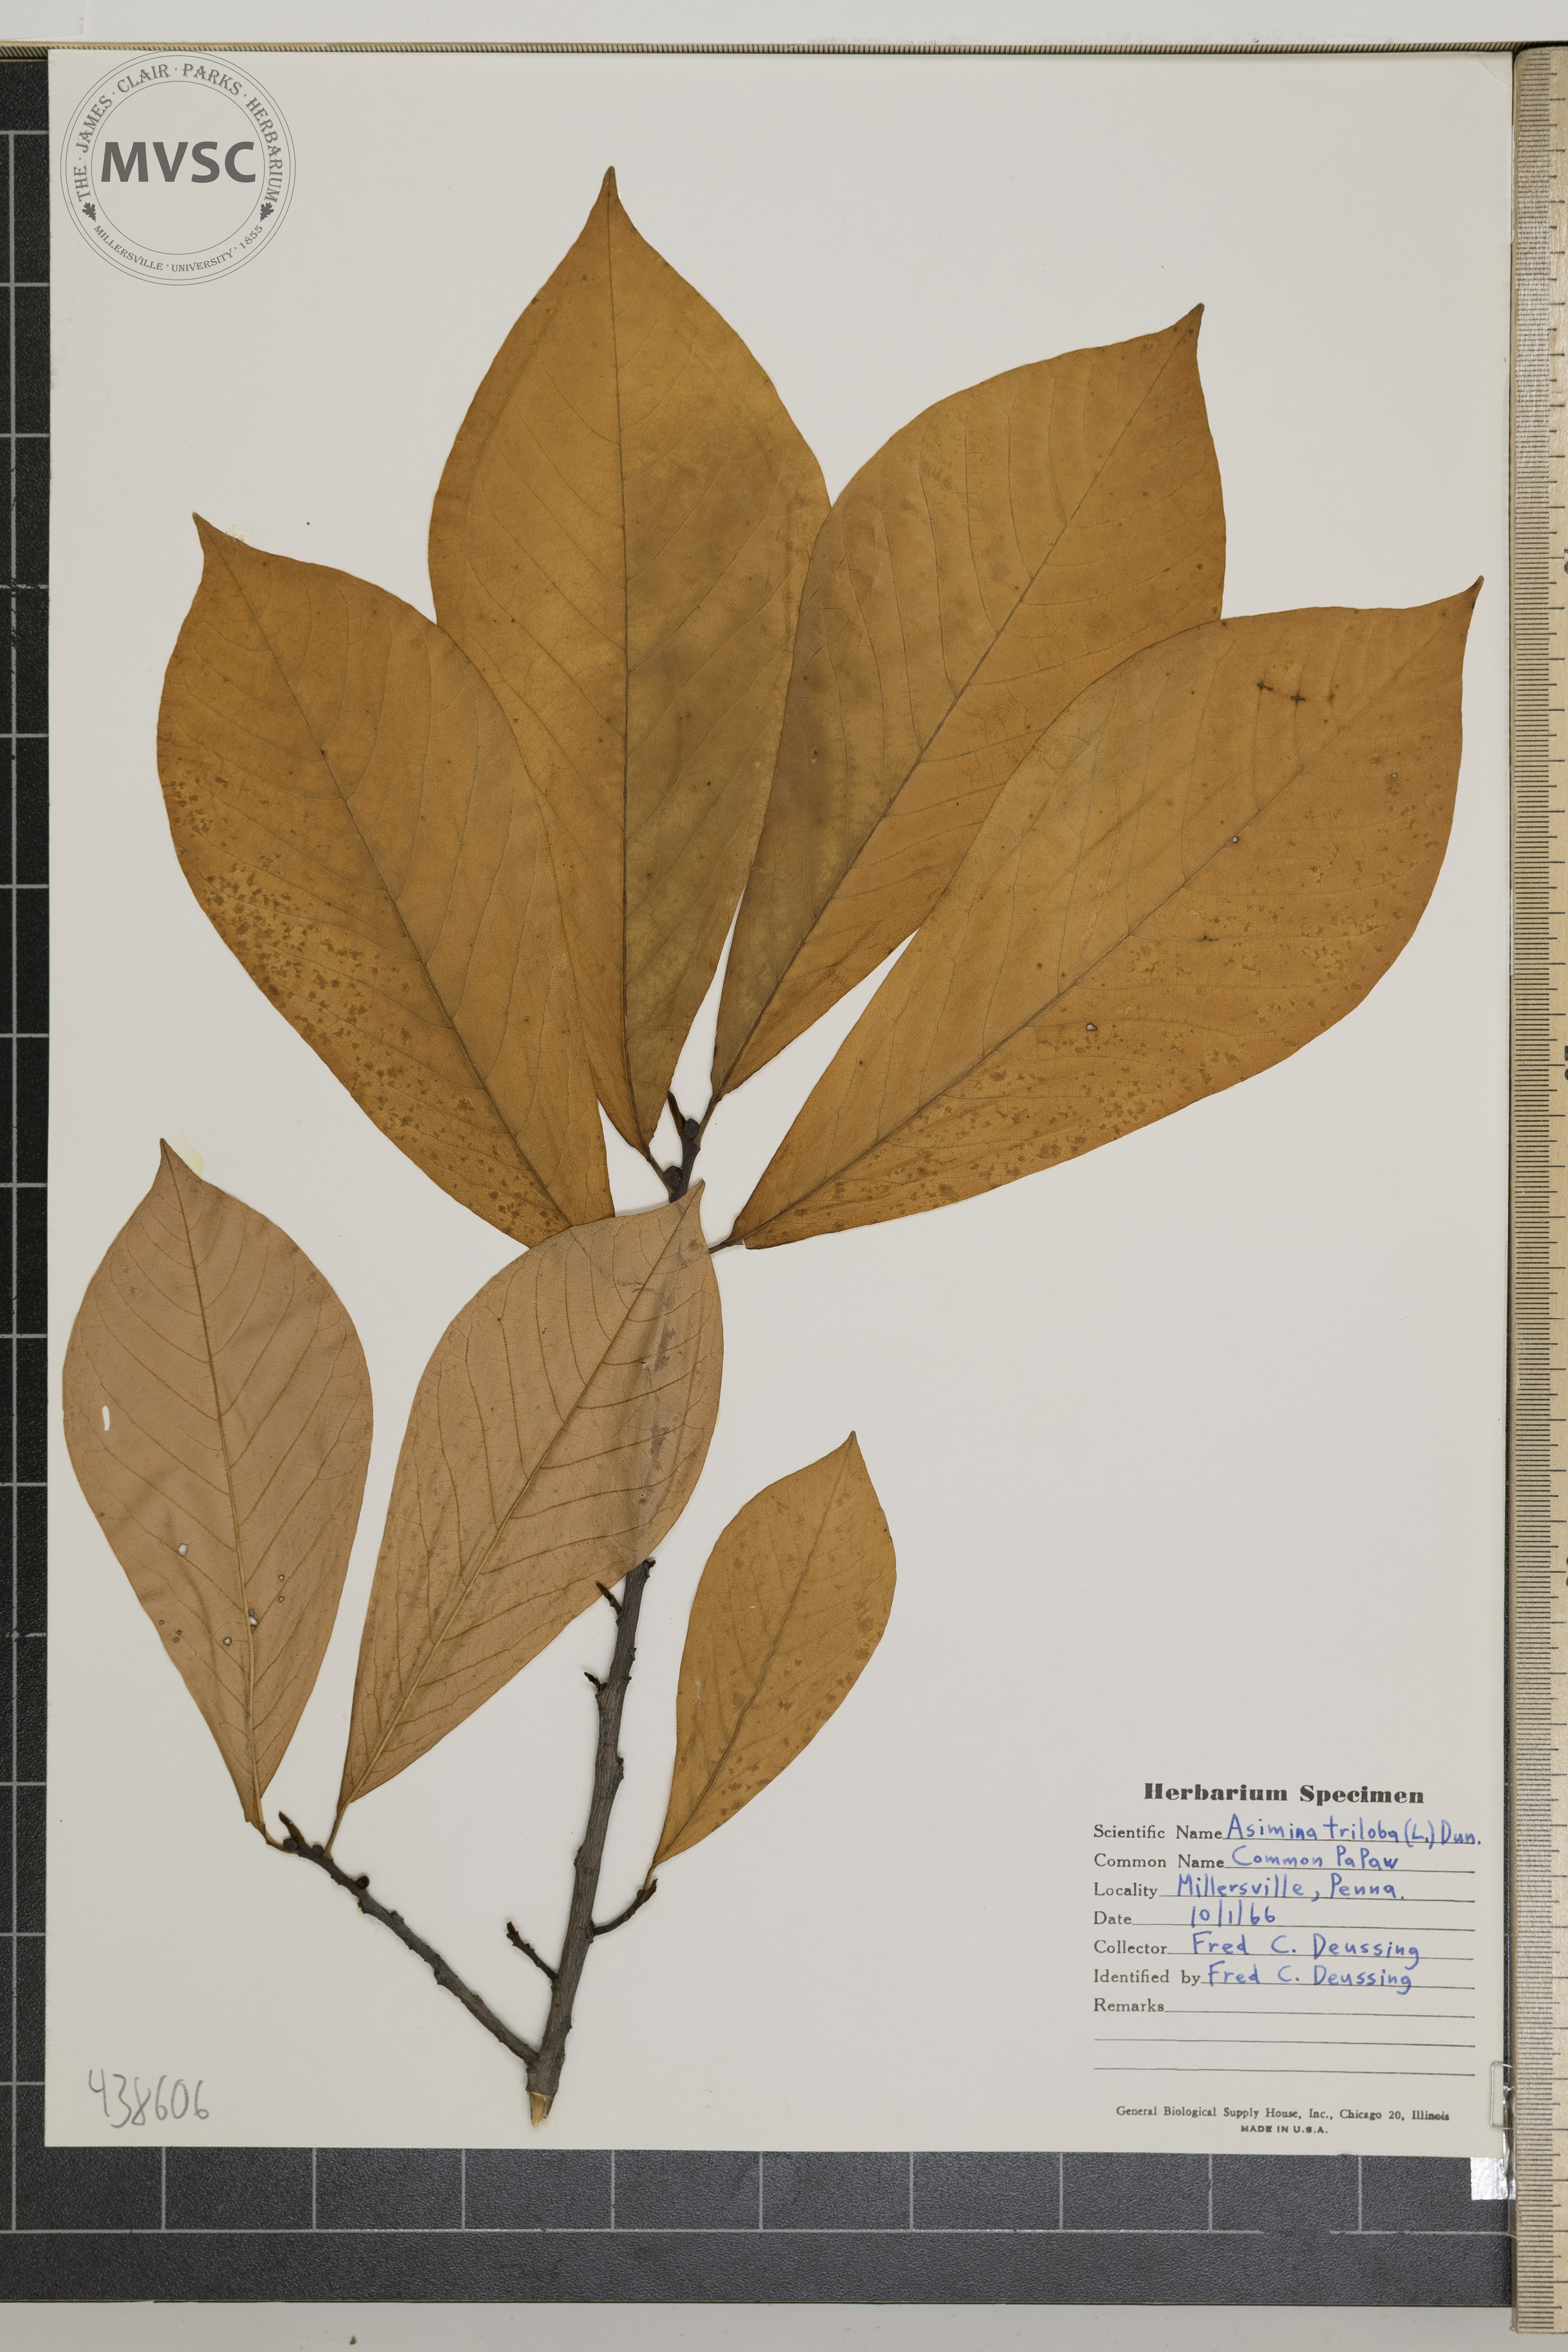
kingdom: Plantae
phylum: Tracheophyta
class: Magnoliopsida
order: Magnoliales
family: Annonaceae
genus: Asimina
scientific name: Asimina triloba
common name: Dog-banana
